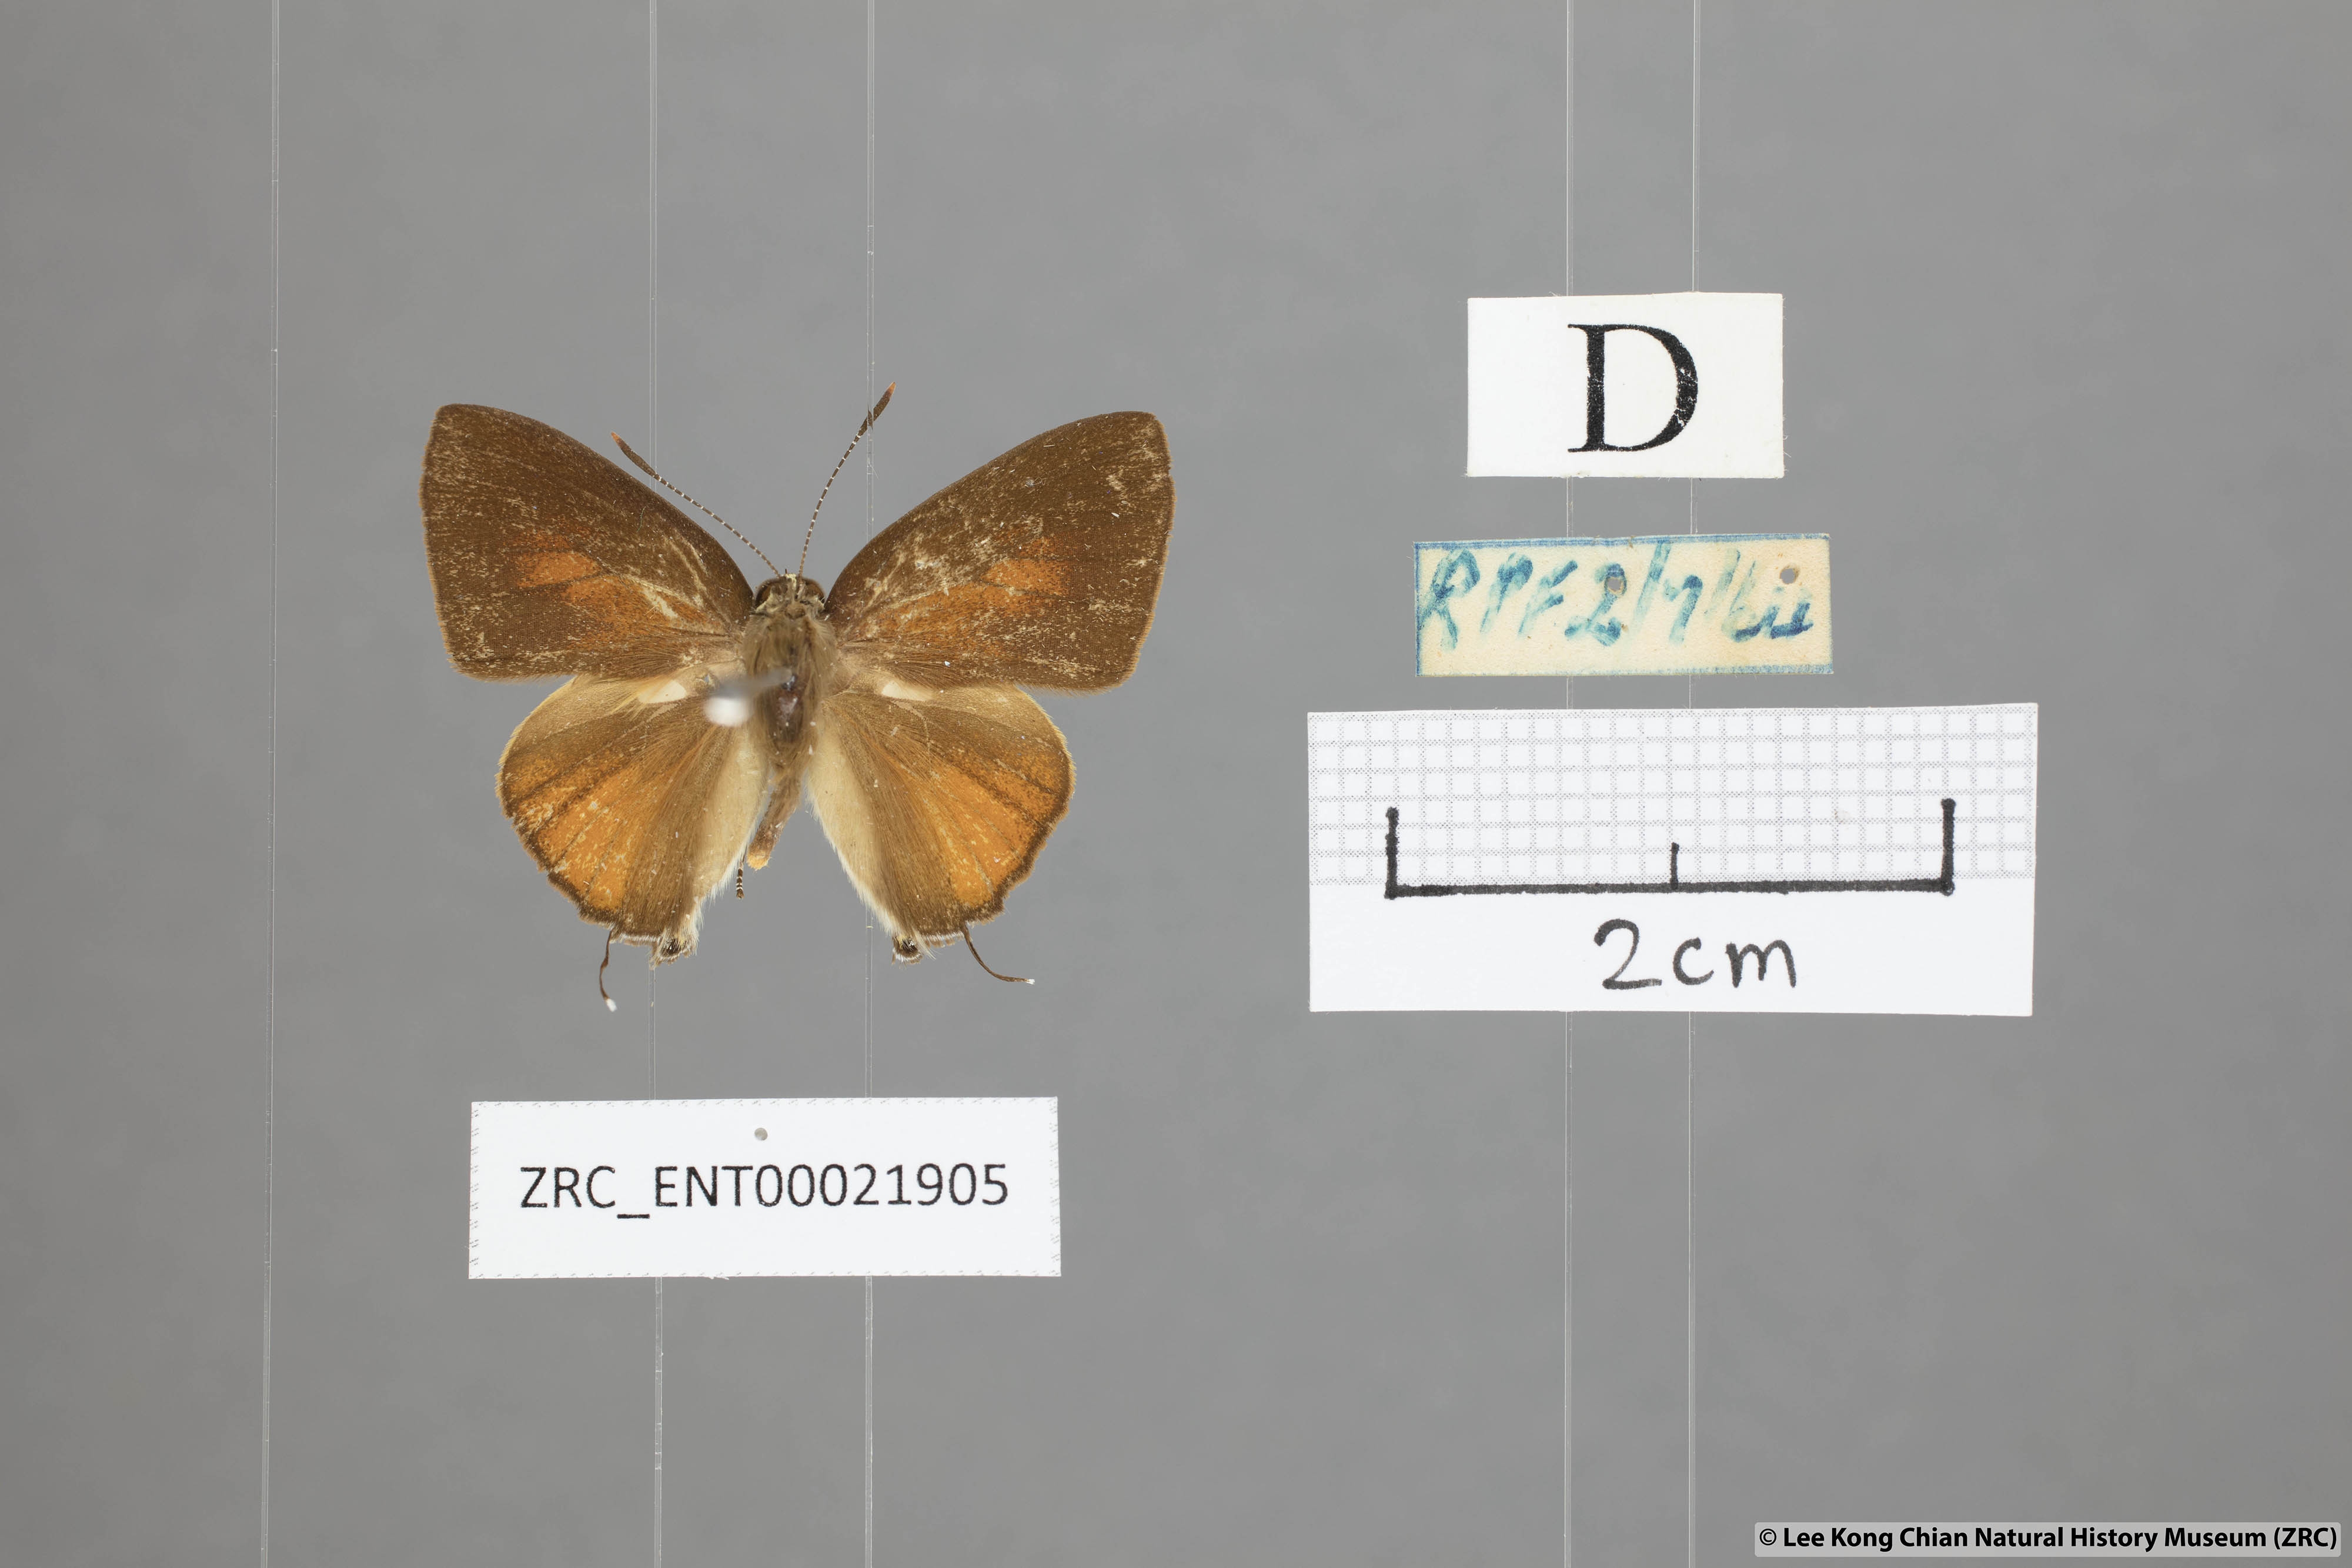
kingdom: Animalia
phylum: Arthropoda
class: Insecta
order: Lepidoptera
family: Lycaenidae
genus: Rapala
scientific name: Rapala suffusa
